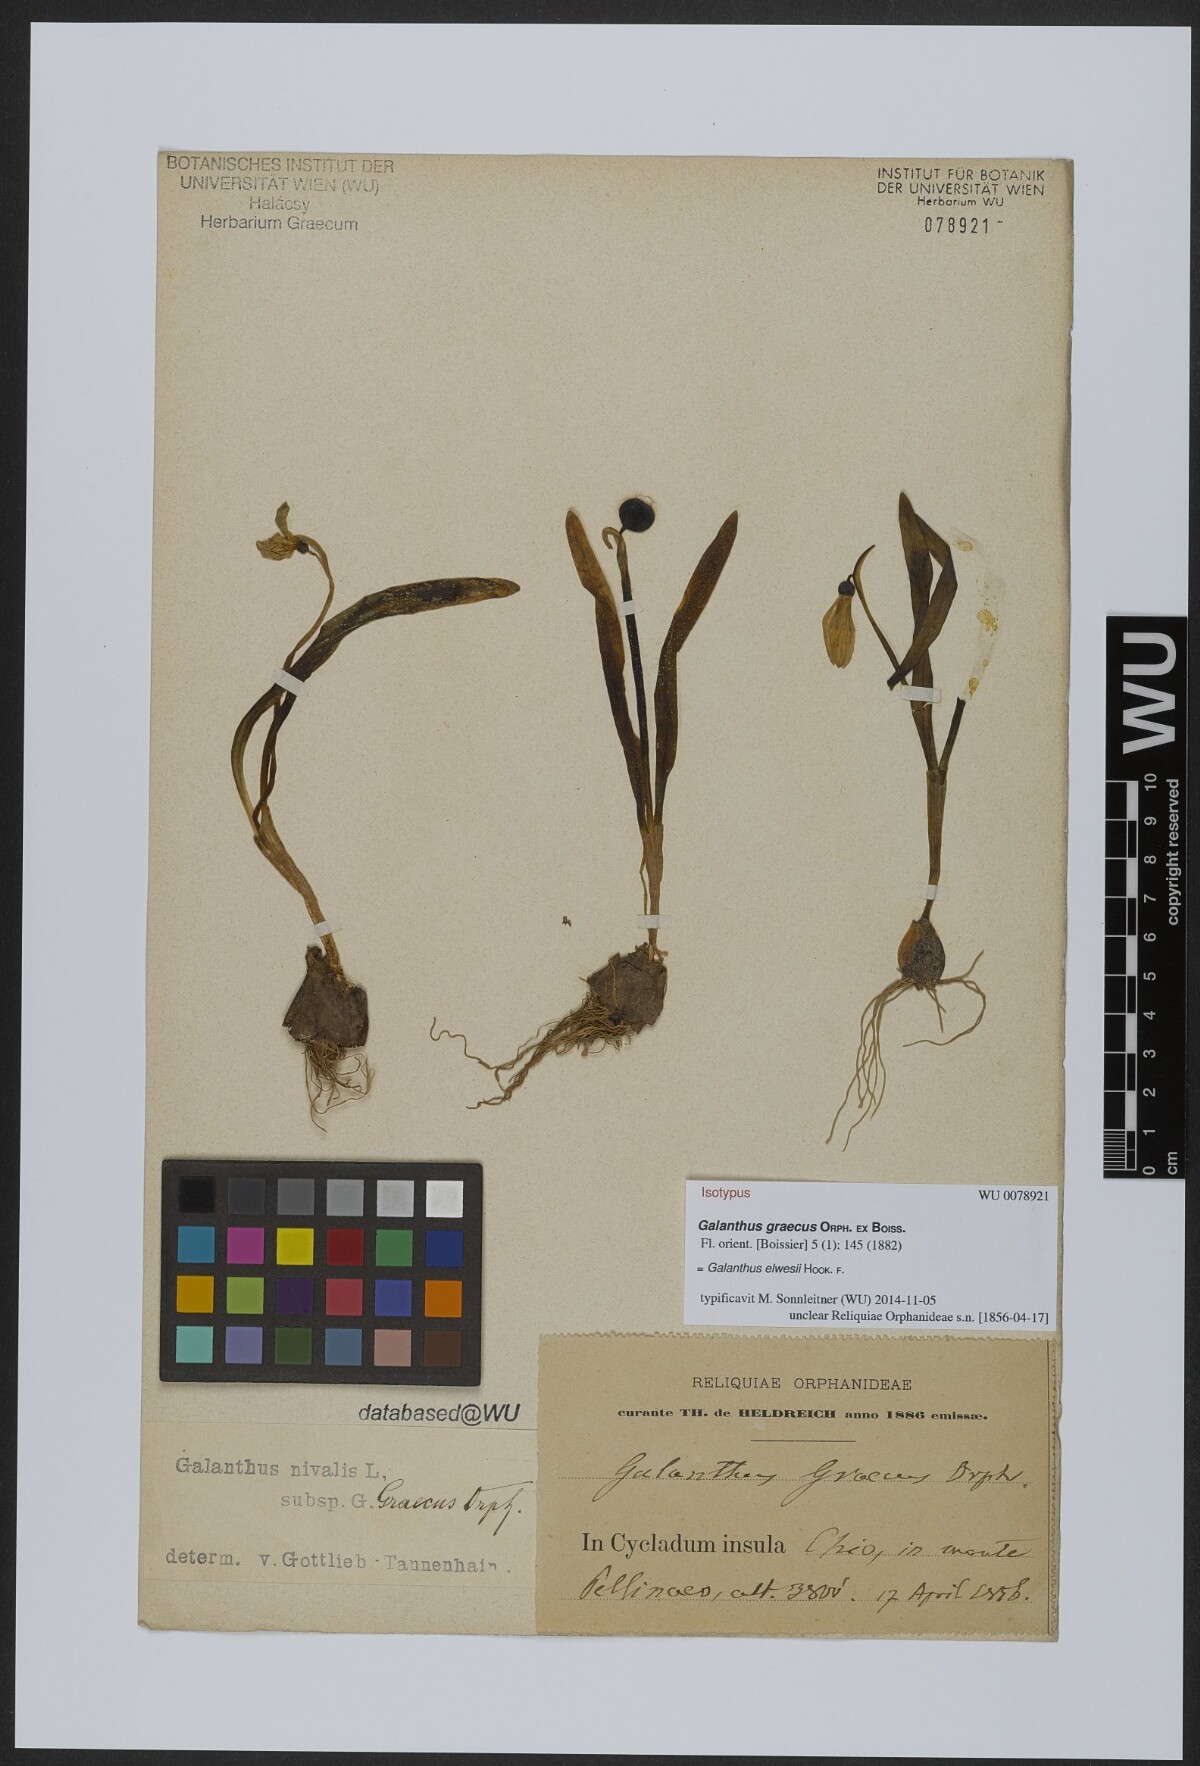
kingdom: Plantae
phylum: Tracheophyta
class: Liliopsida
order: Asparagales
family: Amaryllidaceae
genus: Galanthus
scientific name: Galanthus elwesii
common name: Greater snowdrop
